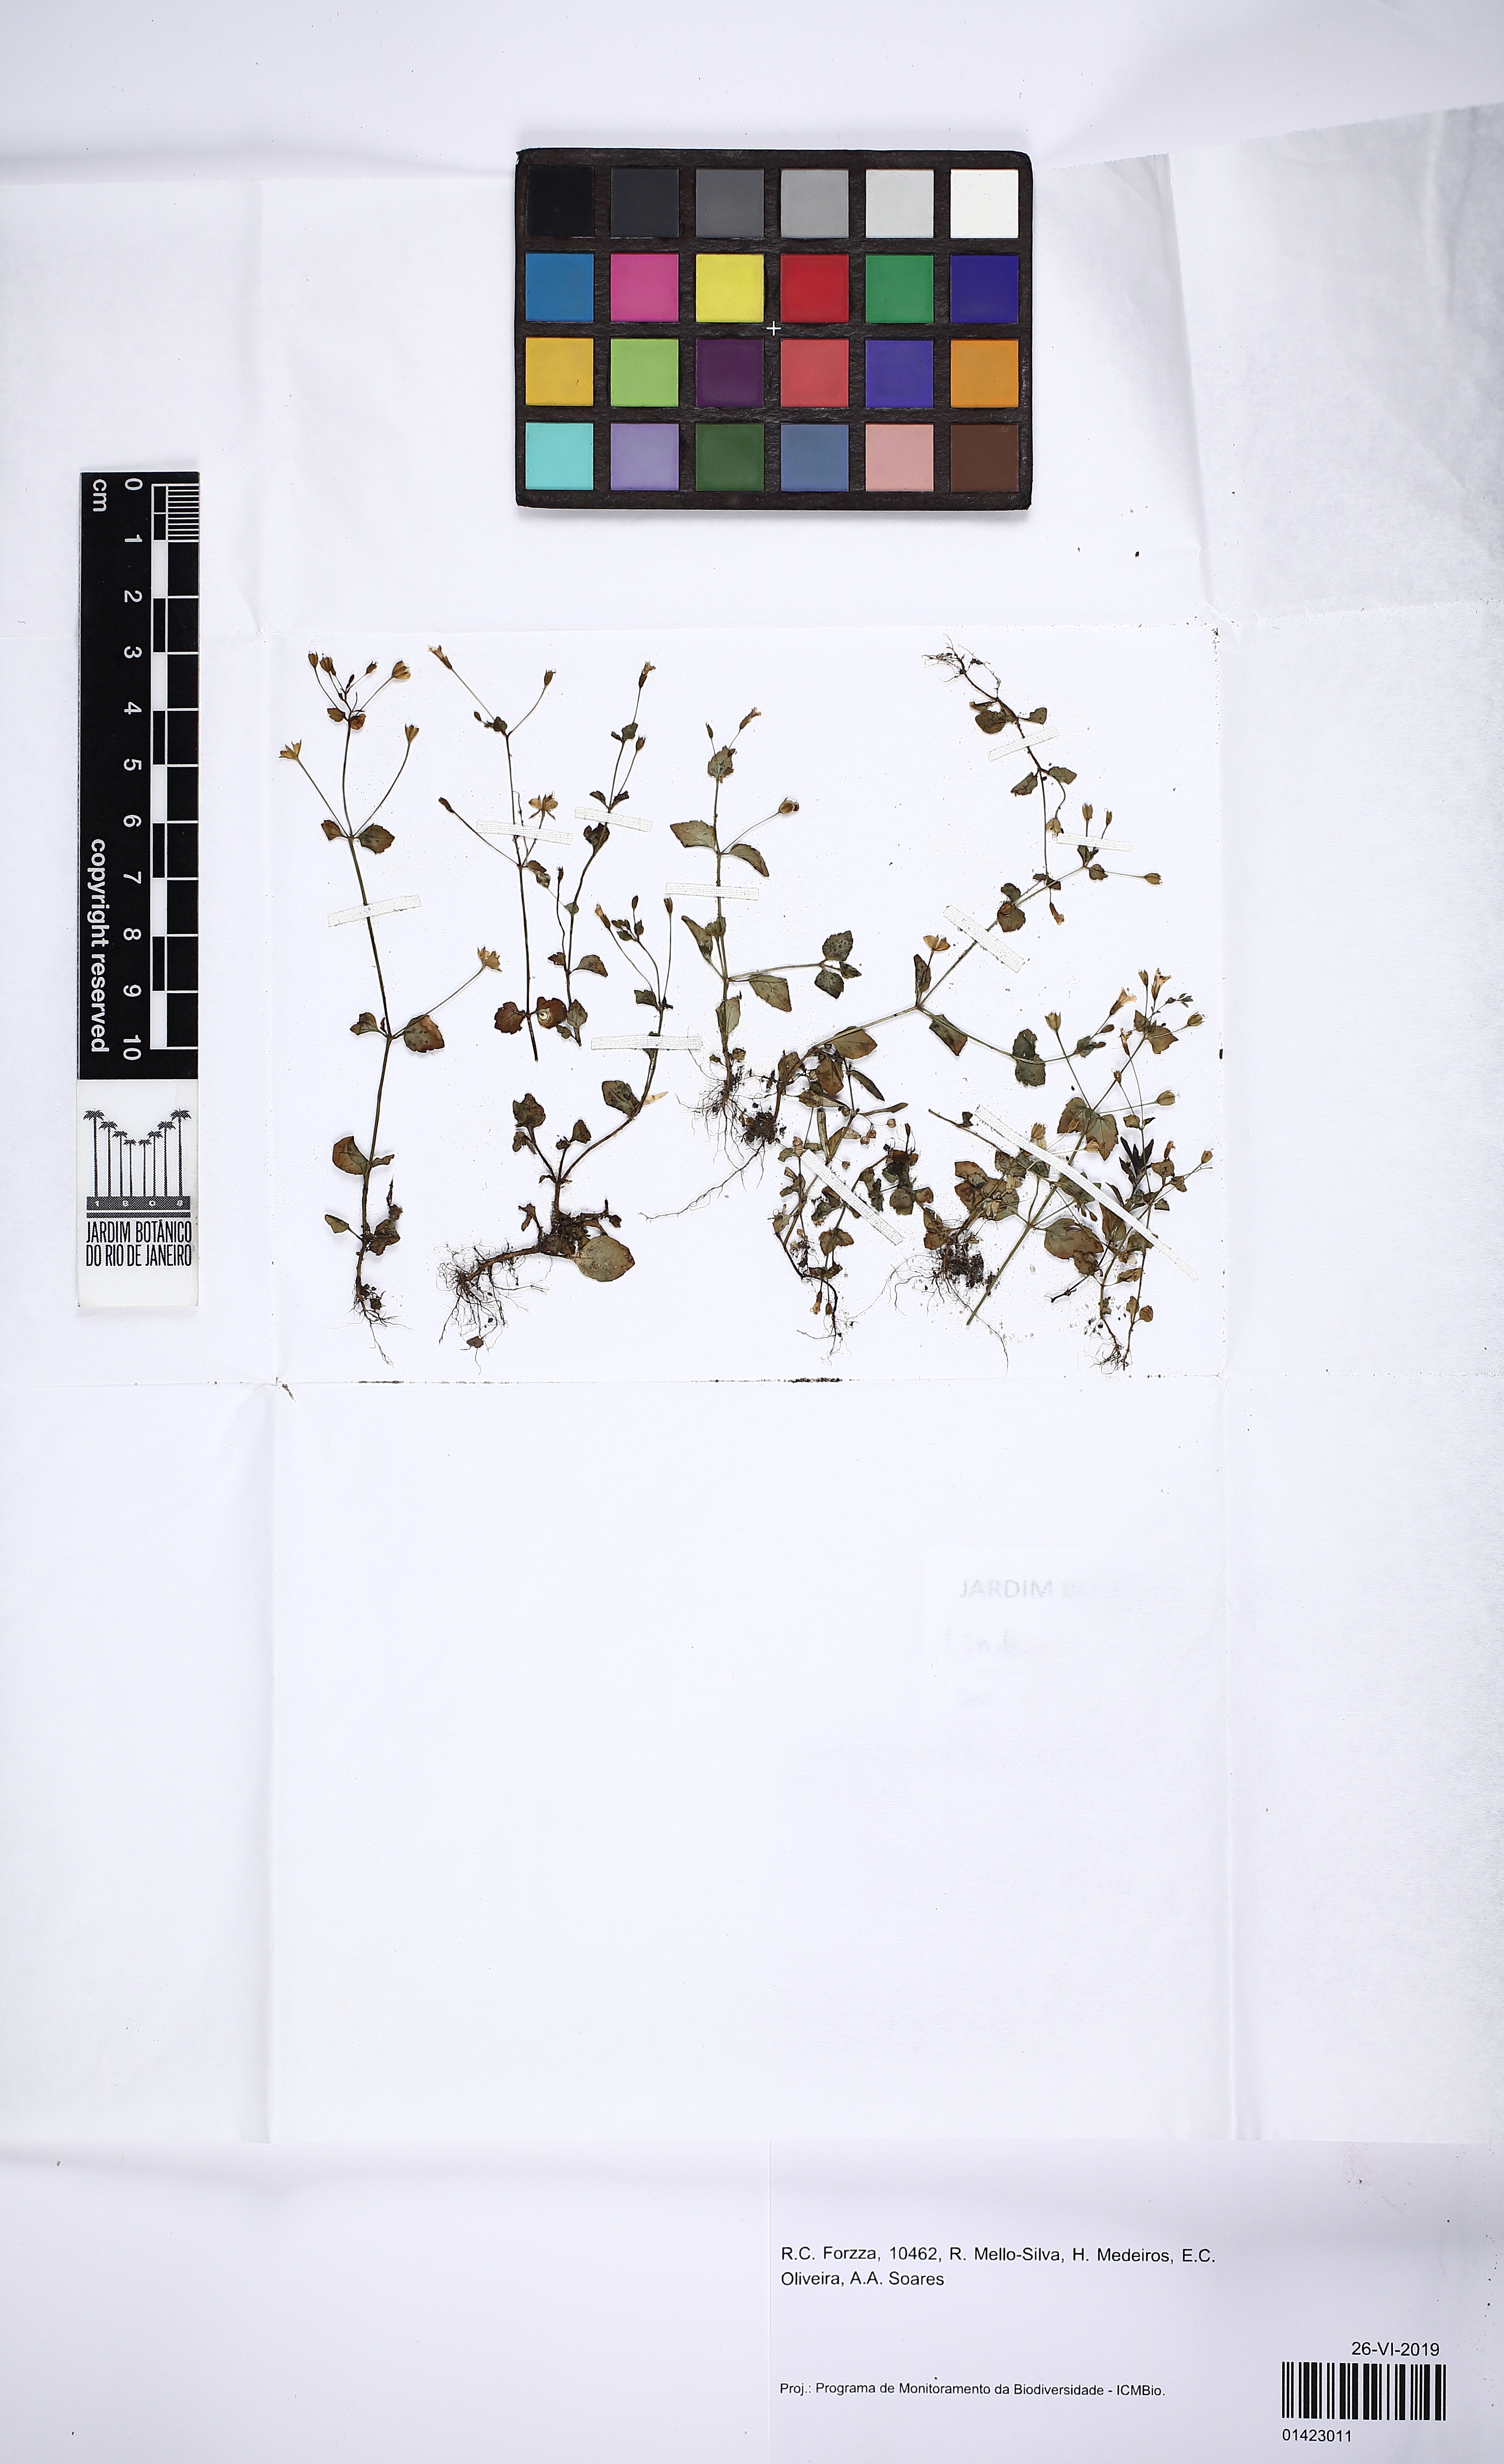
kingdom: Plantae
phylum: Tracheophyta
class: Magnoliopsida
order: Lamiales
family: Linderniaceae
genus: Torenia
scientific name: Torenia crustacea
